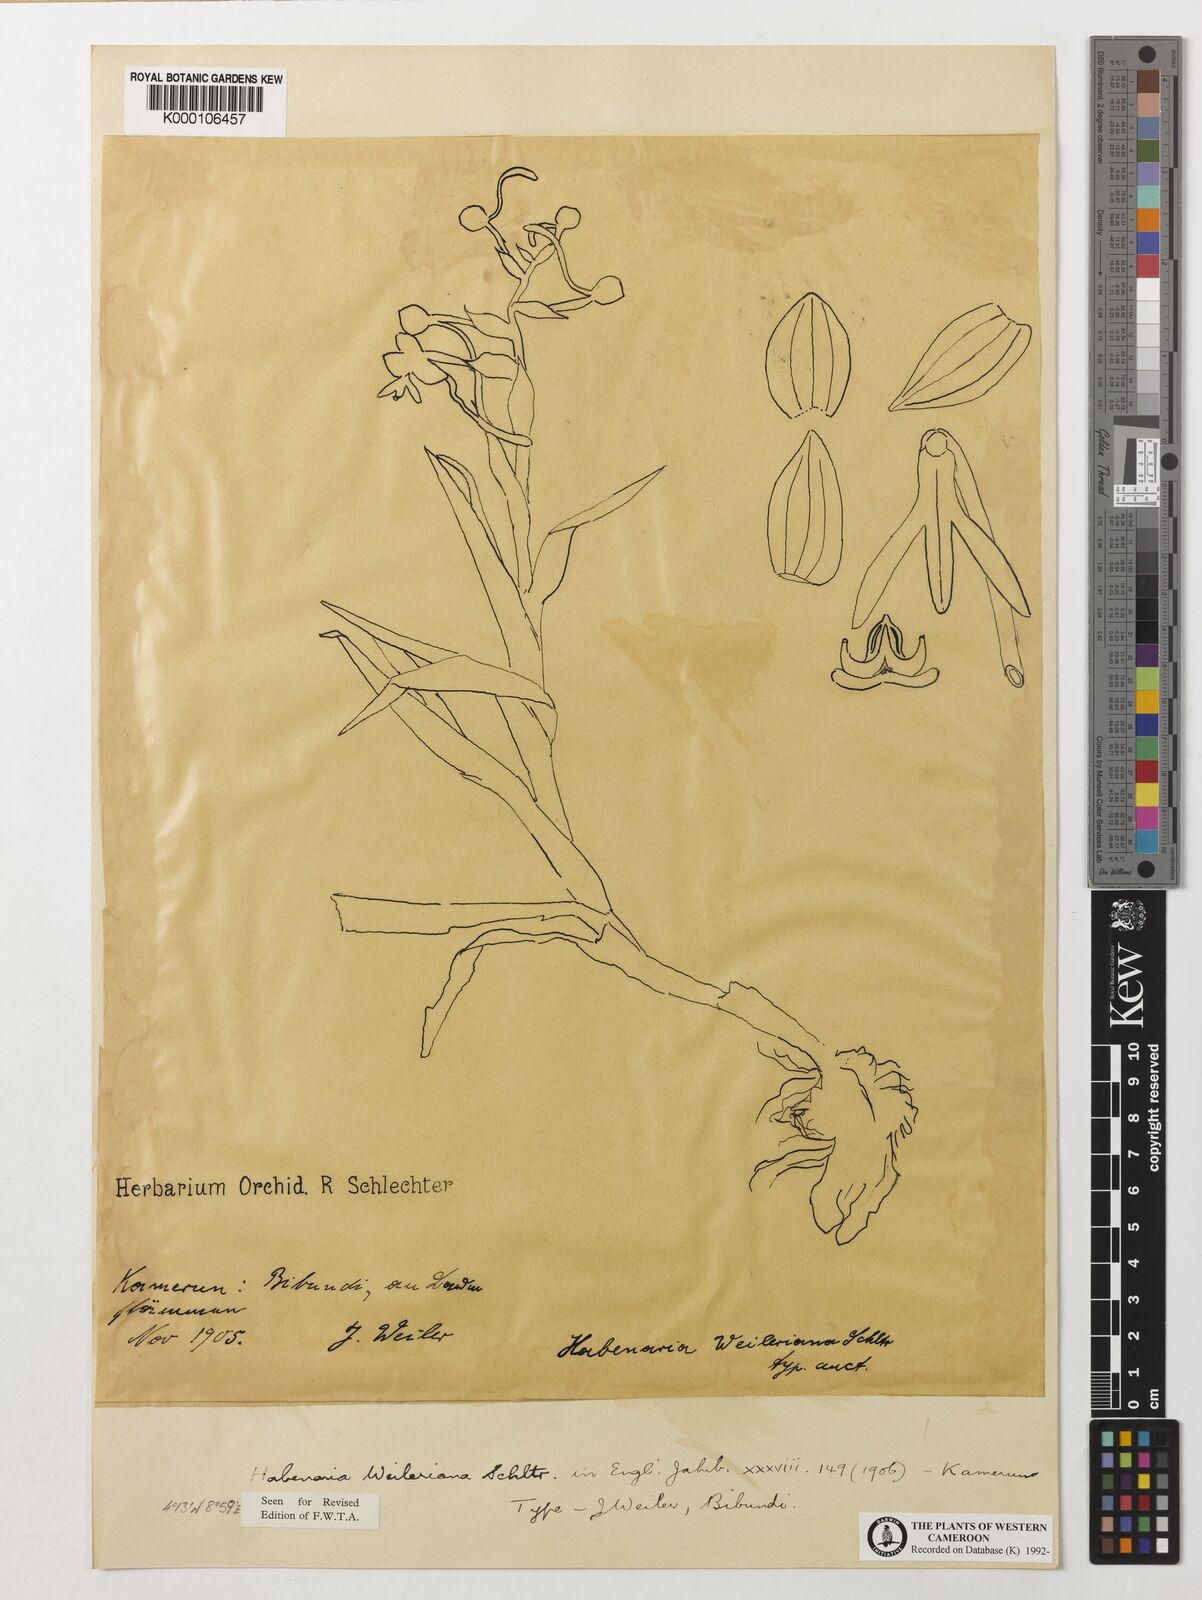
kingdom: Plantae
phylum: Tracheophyta
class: Liliopsida
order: Asparagales
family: Orchidaceae
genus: Habenaria
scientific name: Habenaria weileriana
